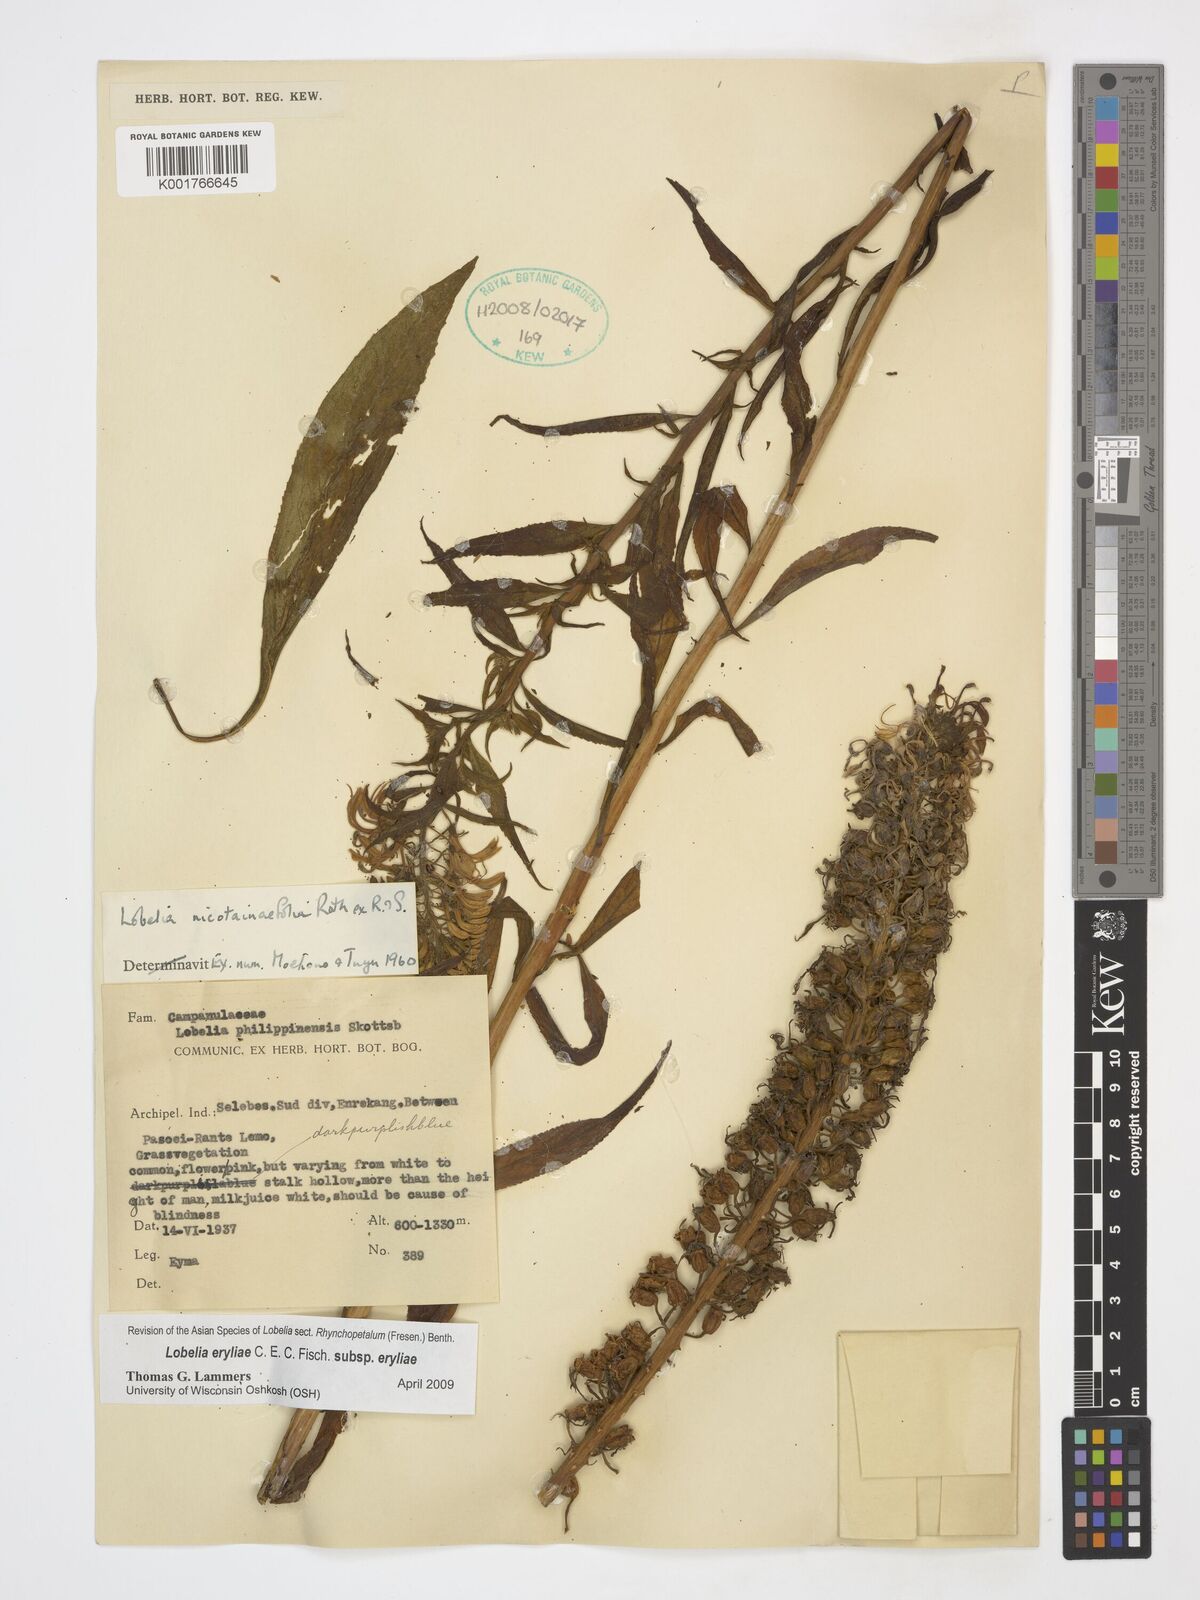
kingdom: Plantae
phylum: Tracheophyta
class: Magnoliopsida
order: Asterales
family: Campanulaceae
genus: Lobelia
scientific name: Lobelia eryliae
